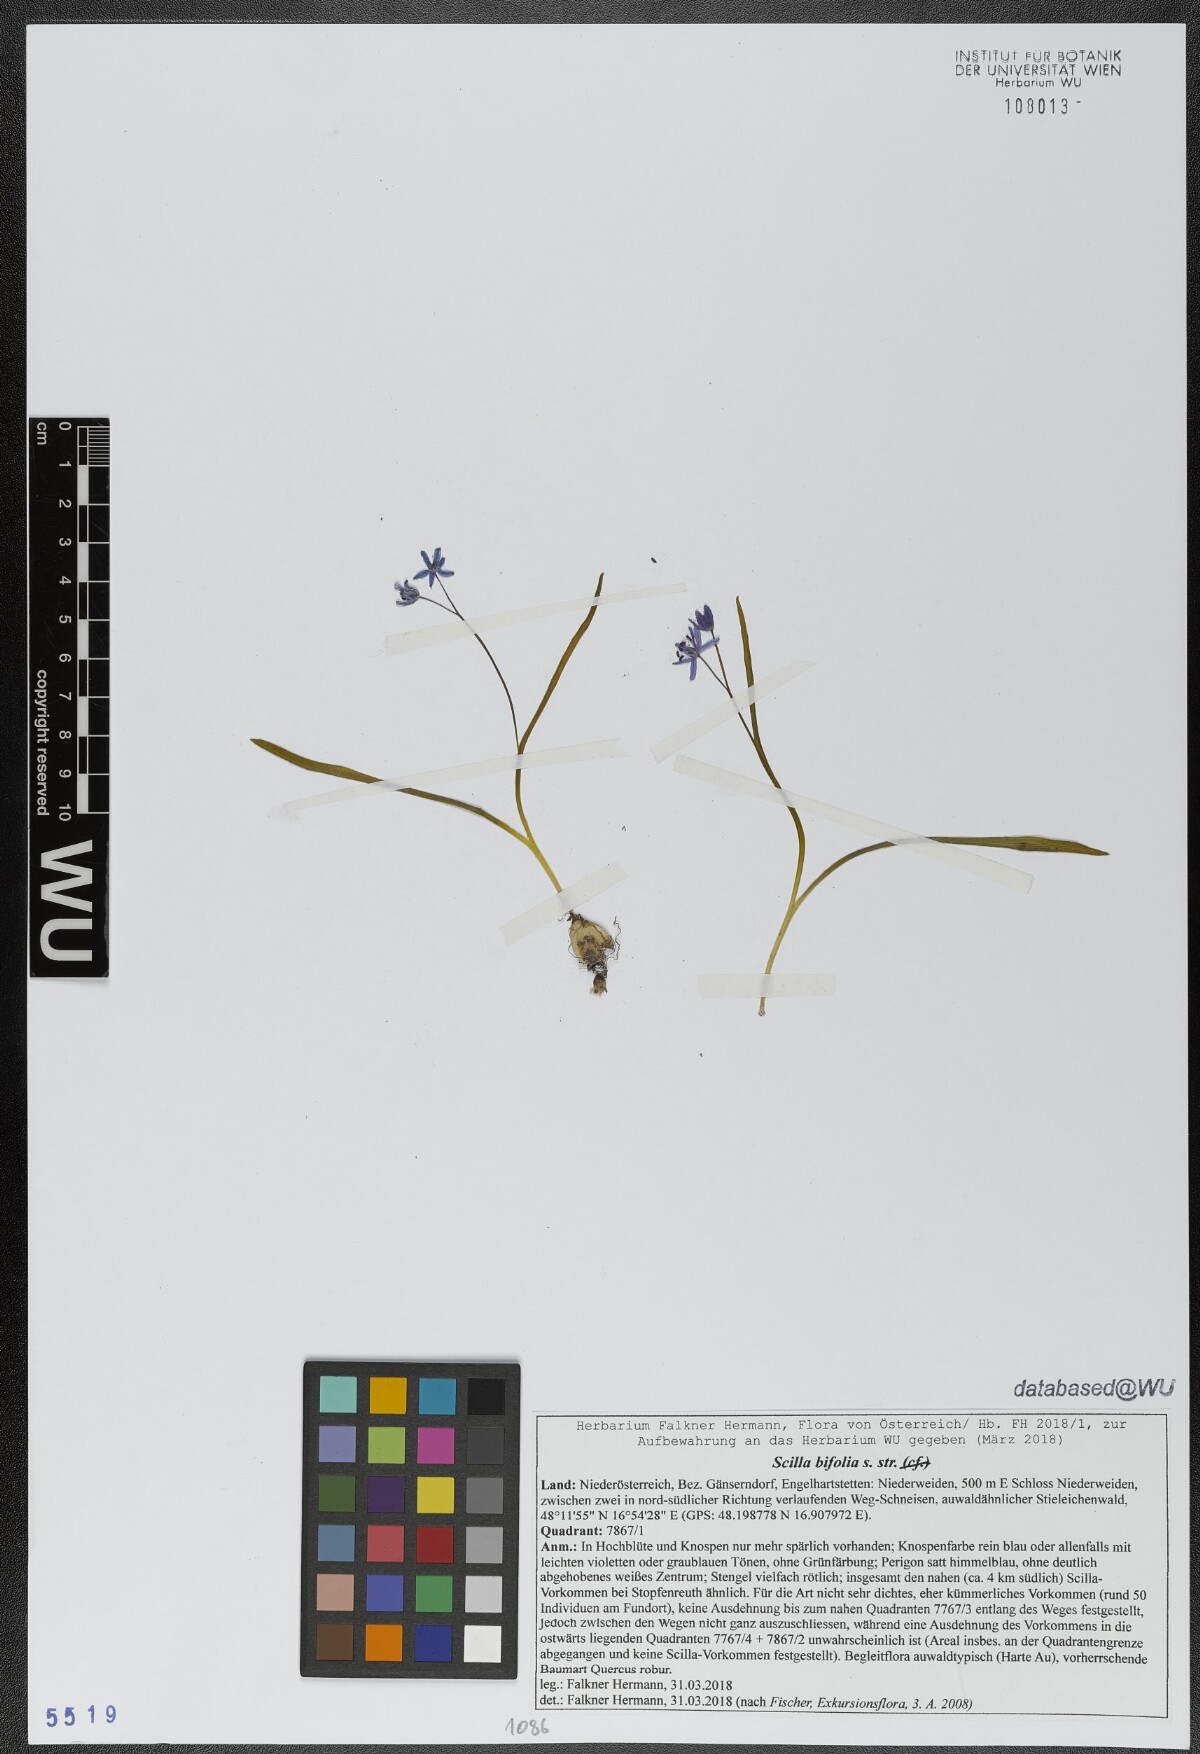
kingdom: Plantae
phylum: Tracheophyta
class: Liliopsida
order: Asparagales
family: Asparagaceae
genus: Scilla
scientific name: Scilla bifolia
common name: Alpine squill
